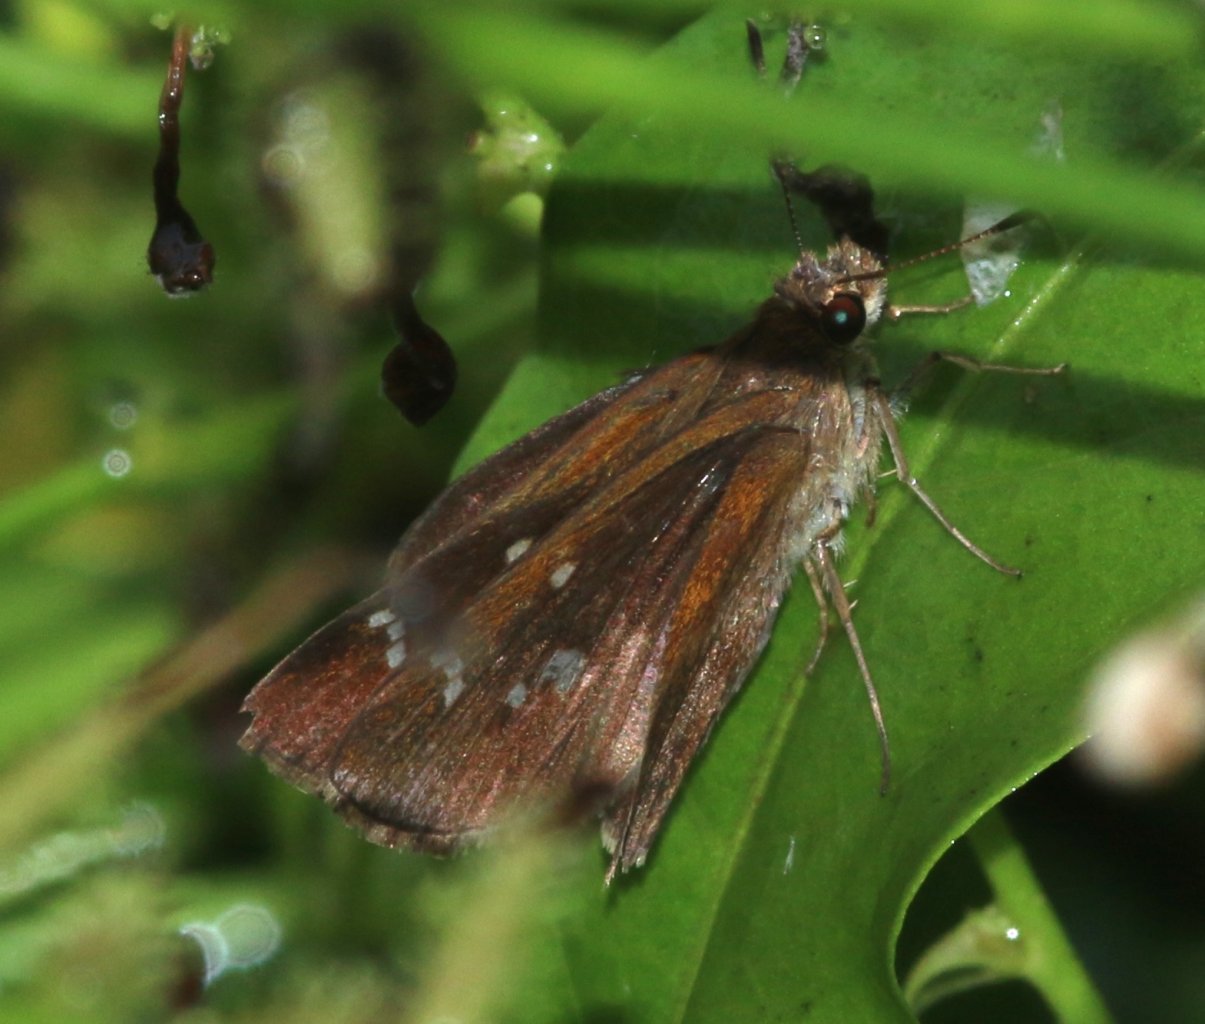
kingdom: Animalia
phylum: Arthropoda
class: Insecta
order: Lepidoptera
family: Hesperiidae
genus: Lerema
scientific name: Lerema accius
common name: Clouded Skipper
